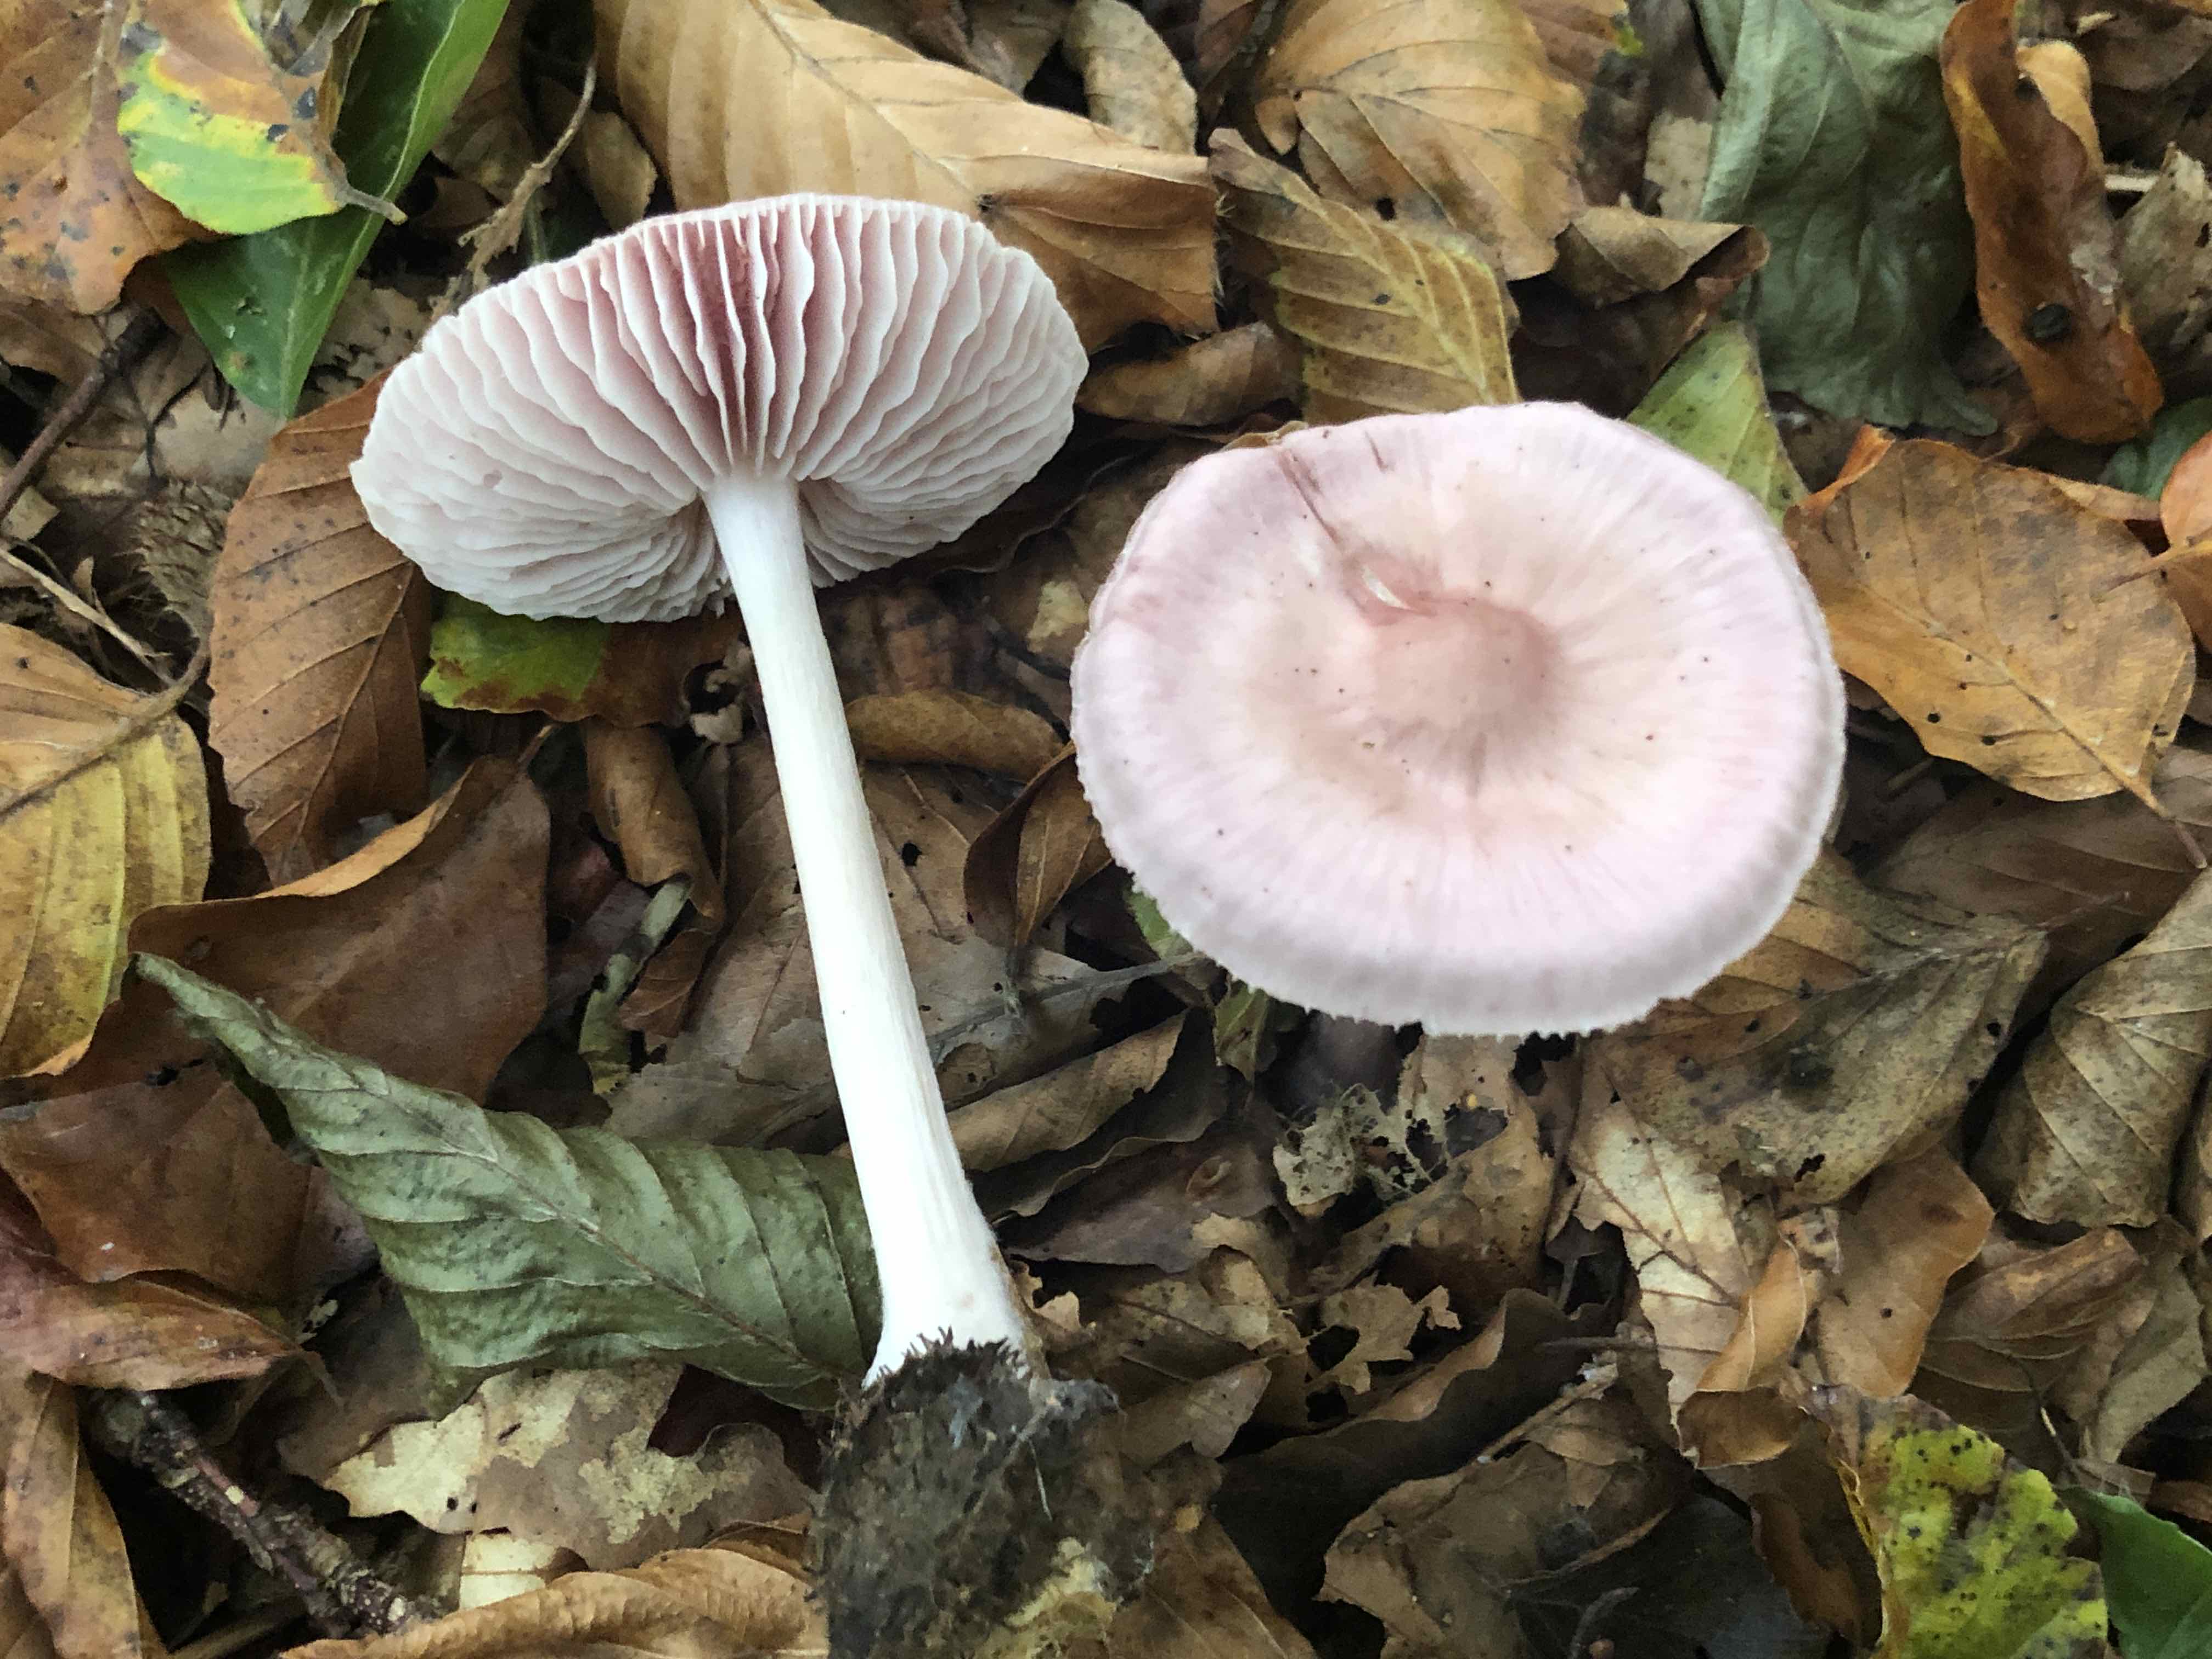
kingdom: Fungi
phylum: Basidiomycota
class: Agaricomycetes
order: Agaricales
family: Mycenaceae
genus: Mycena
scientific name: Mycena rosea
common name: rosa huesvamp
